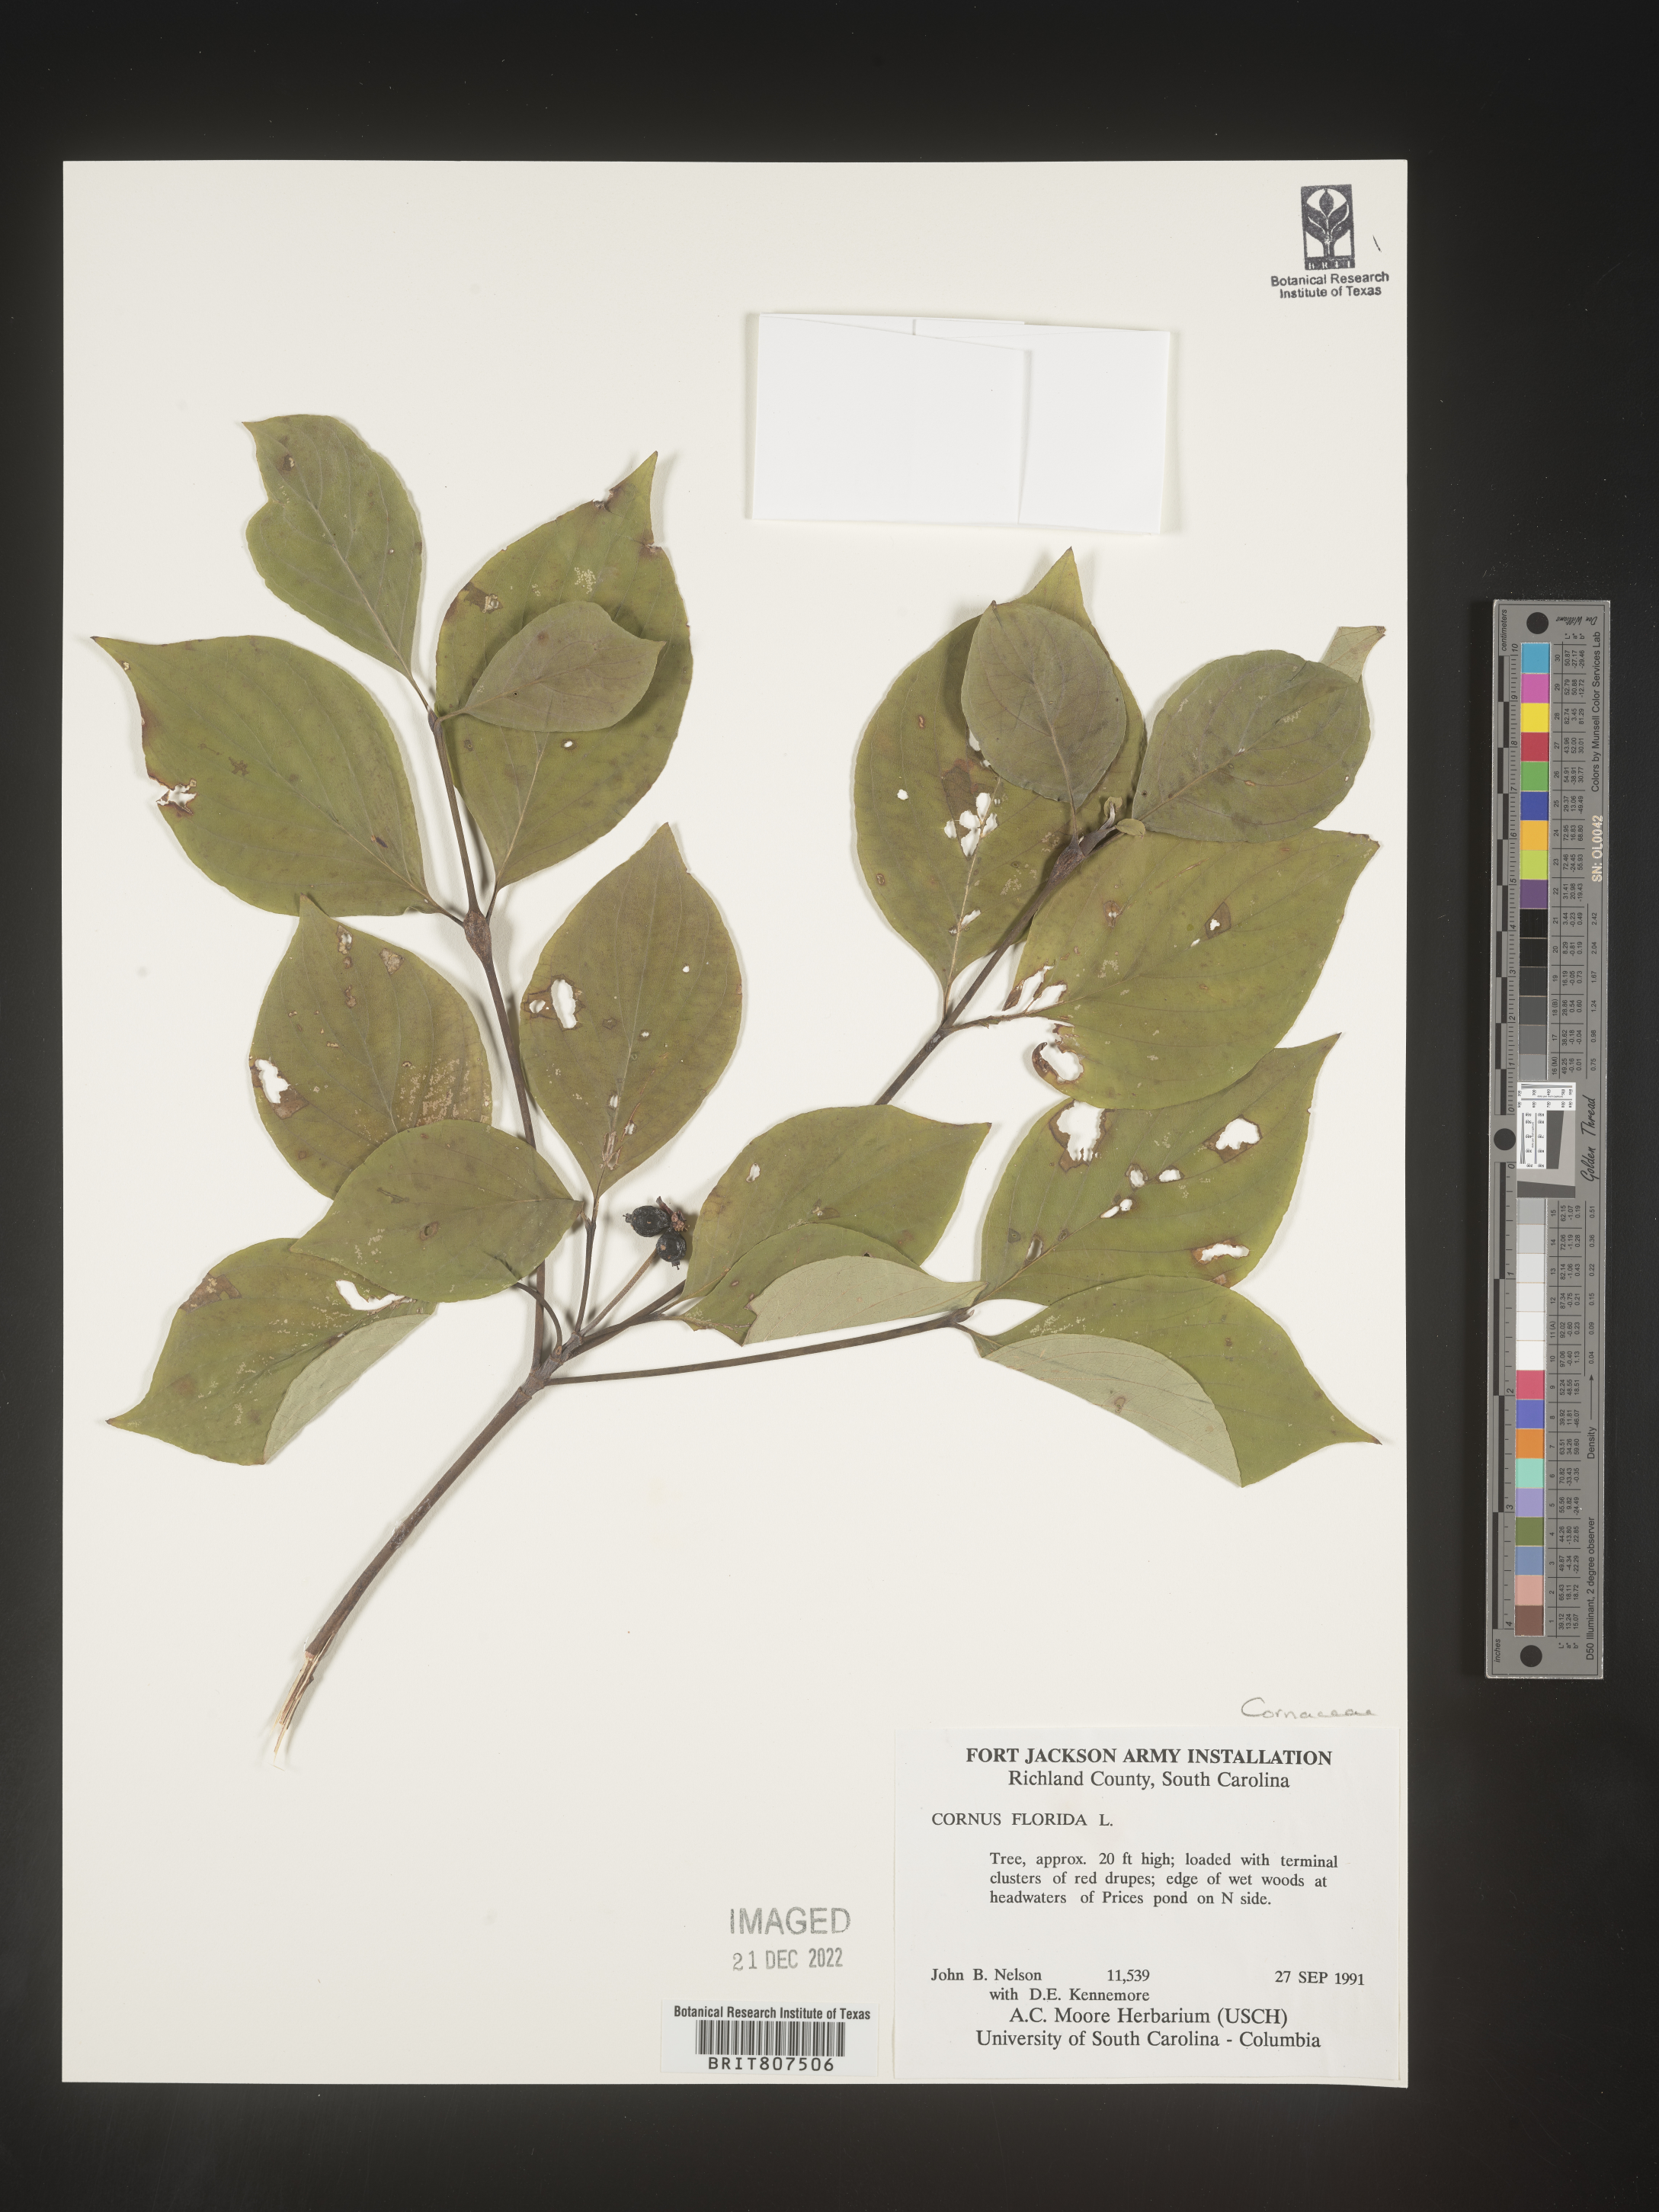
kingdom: Plantae
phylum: Tracheophyta
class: Magnoliopsida
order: Cornales
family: Cornaceae
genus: Cornus
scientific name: Cornus florida
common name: Flowering dogwood
